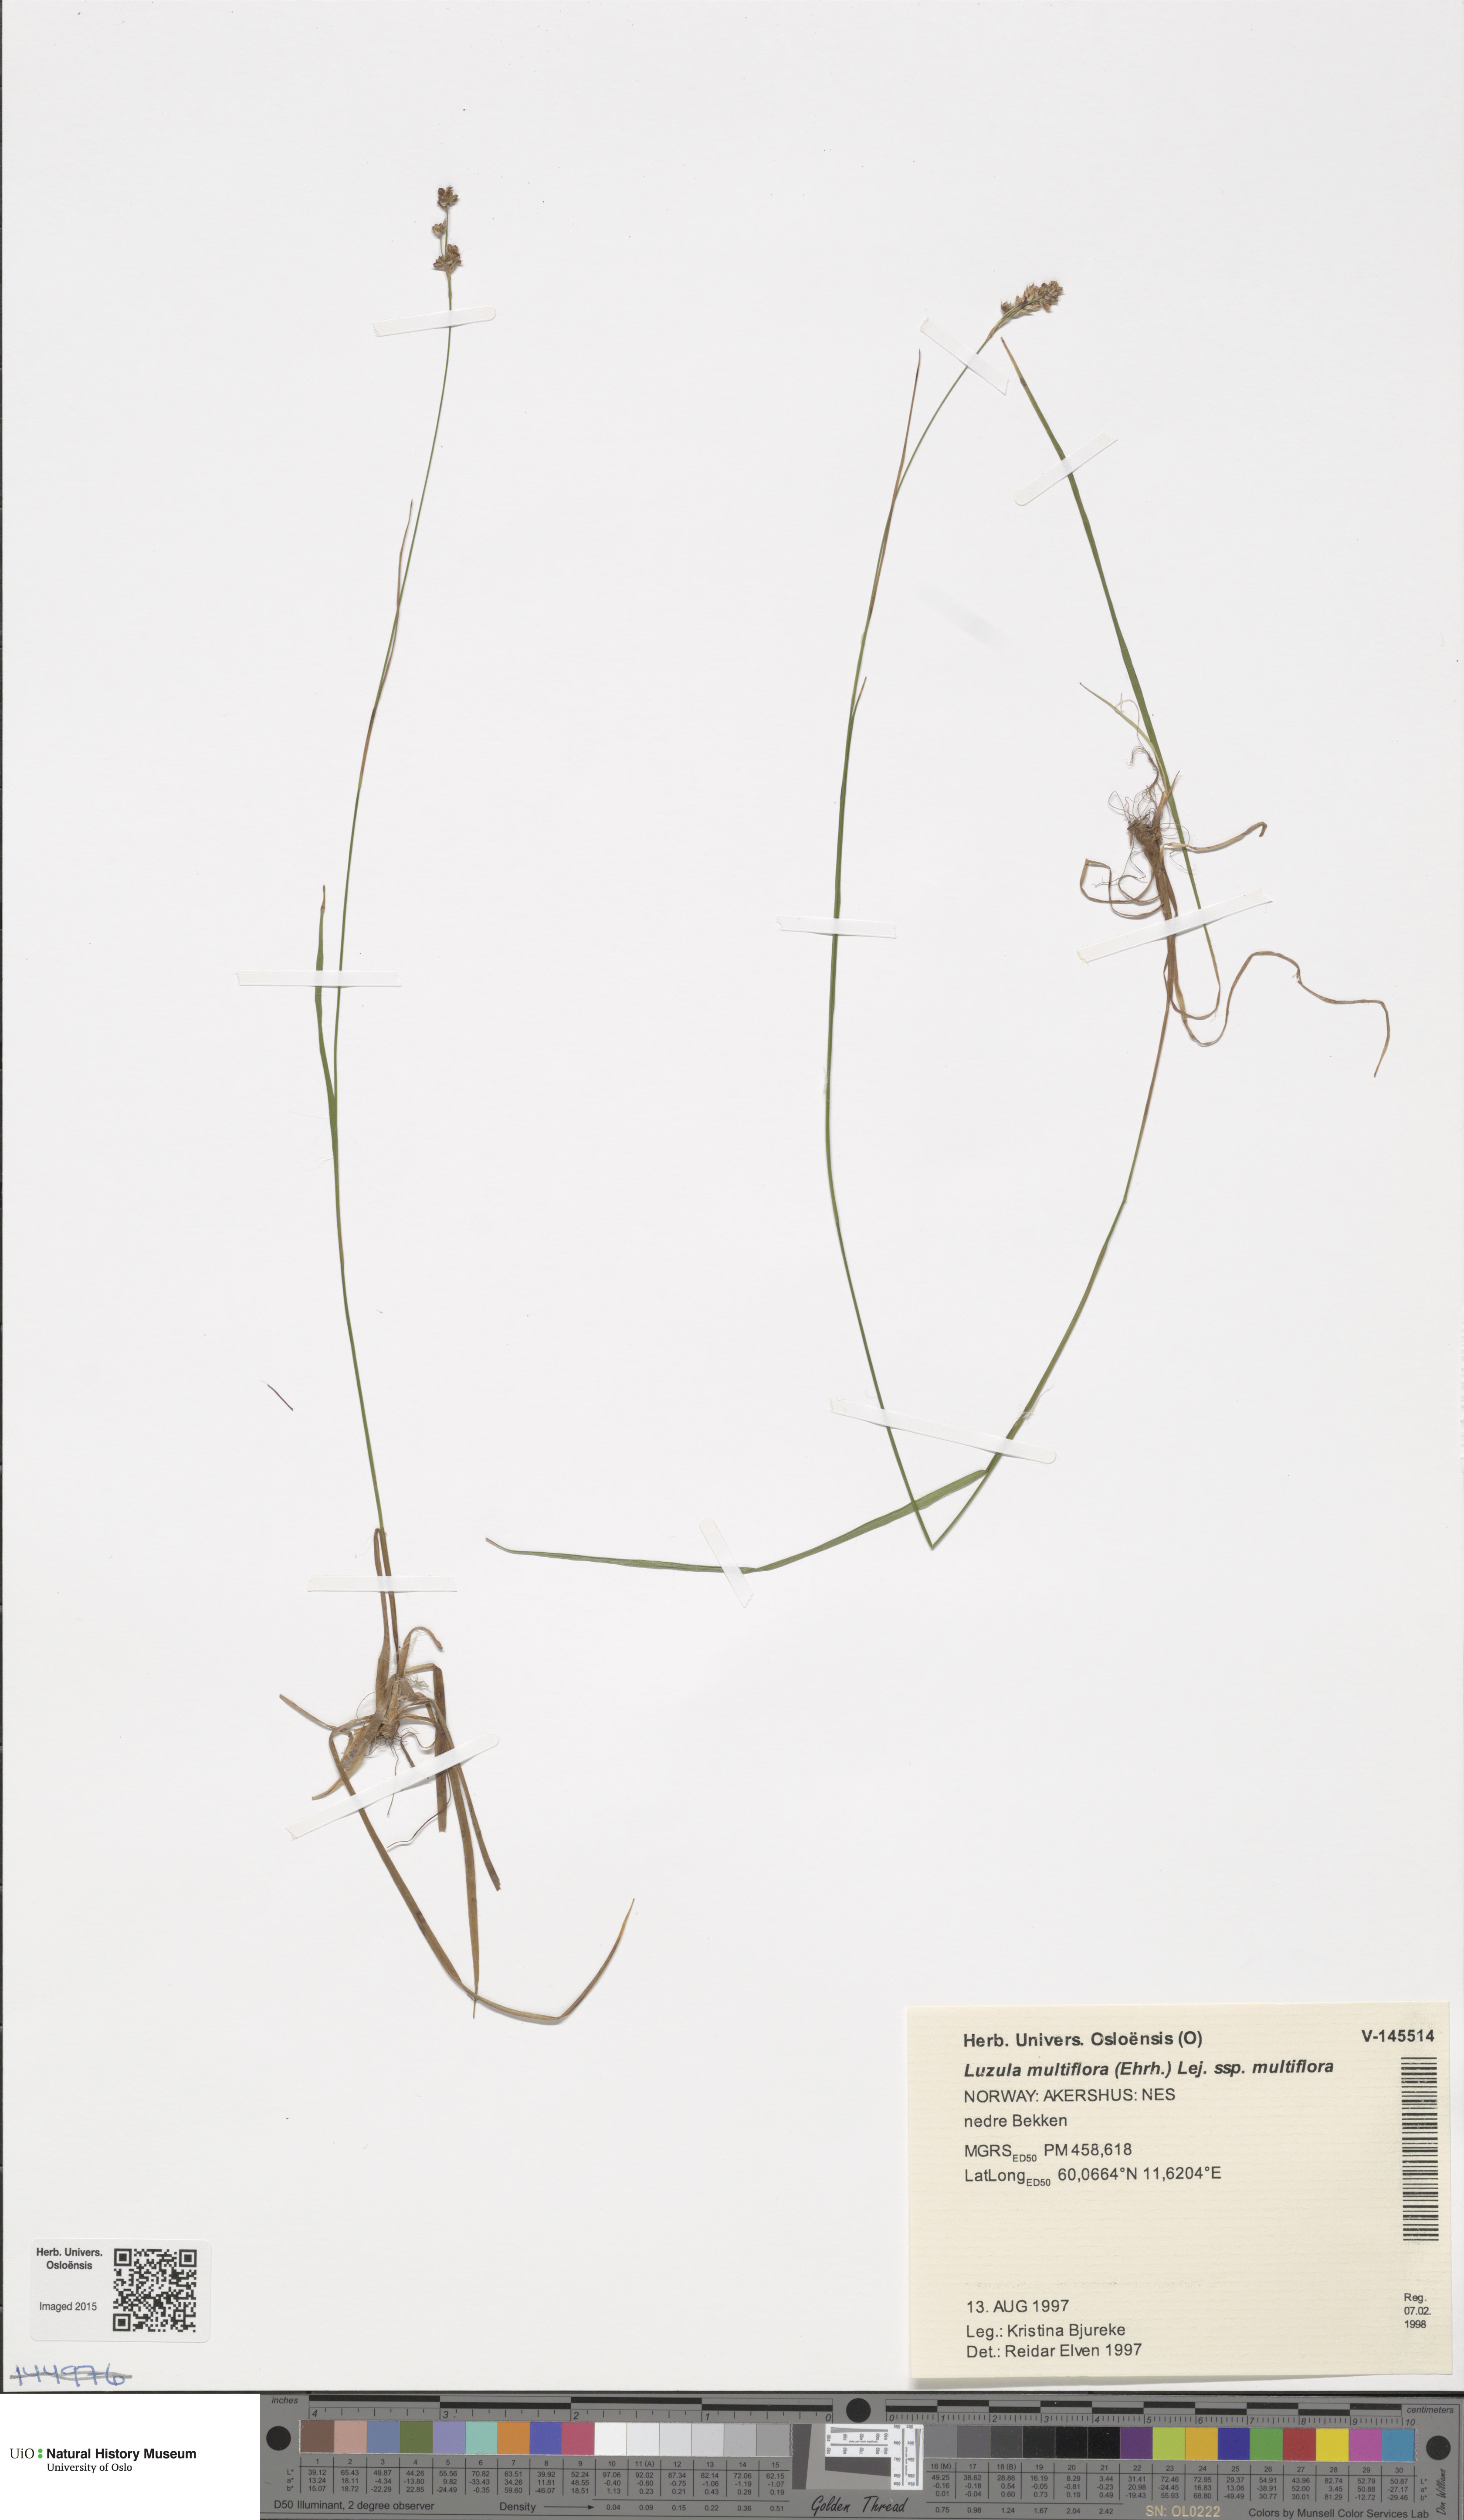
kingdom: Plantae
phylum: Tracheophyta
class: Liliopsida
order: Poales
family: Juncaceae
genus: Luzula
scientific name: Luzula multiflora
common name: Heath wood-rush
